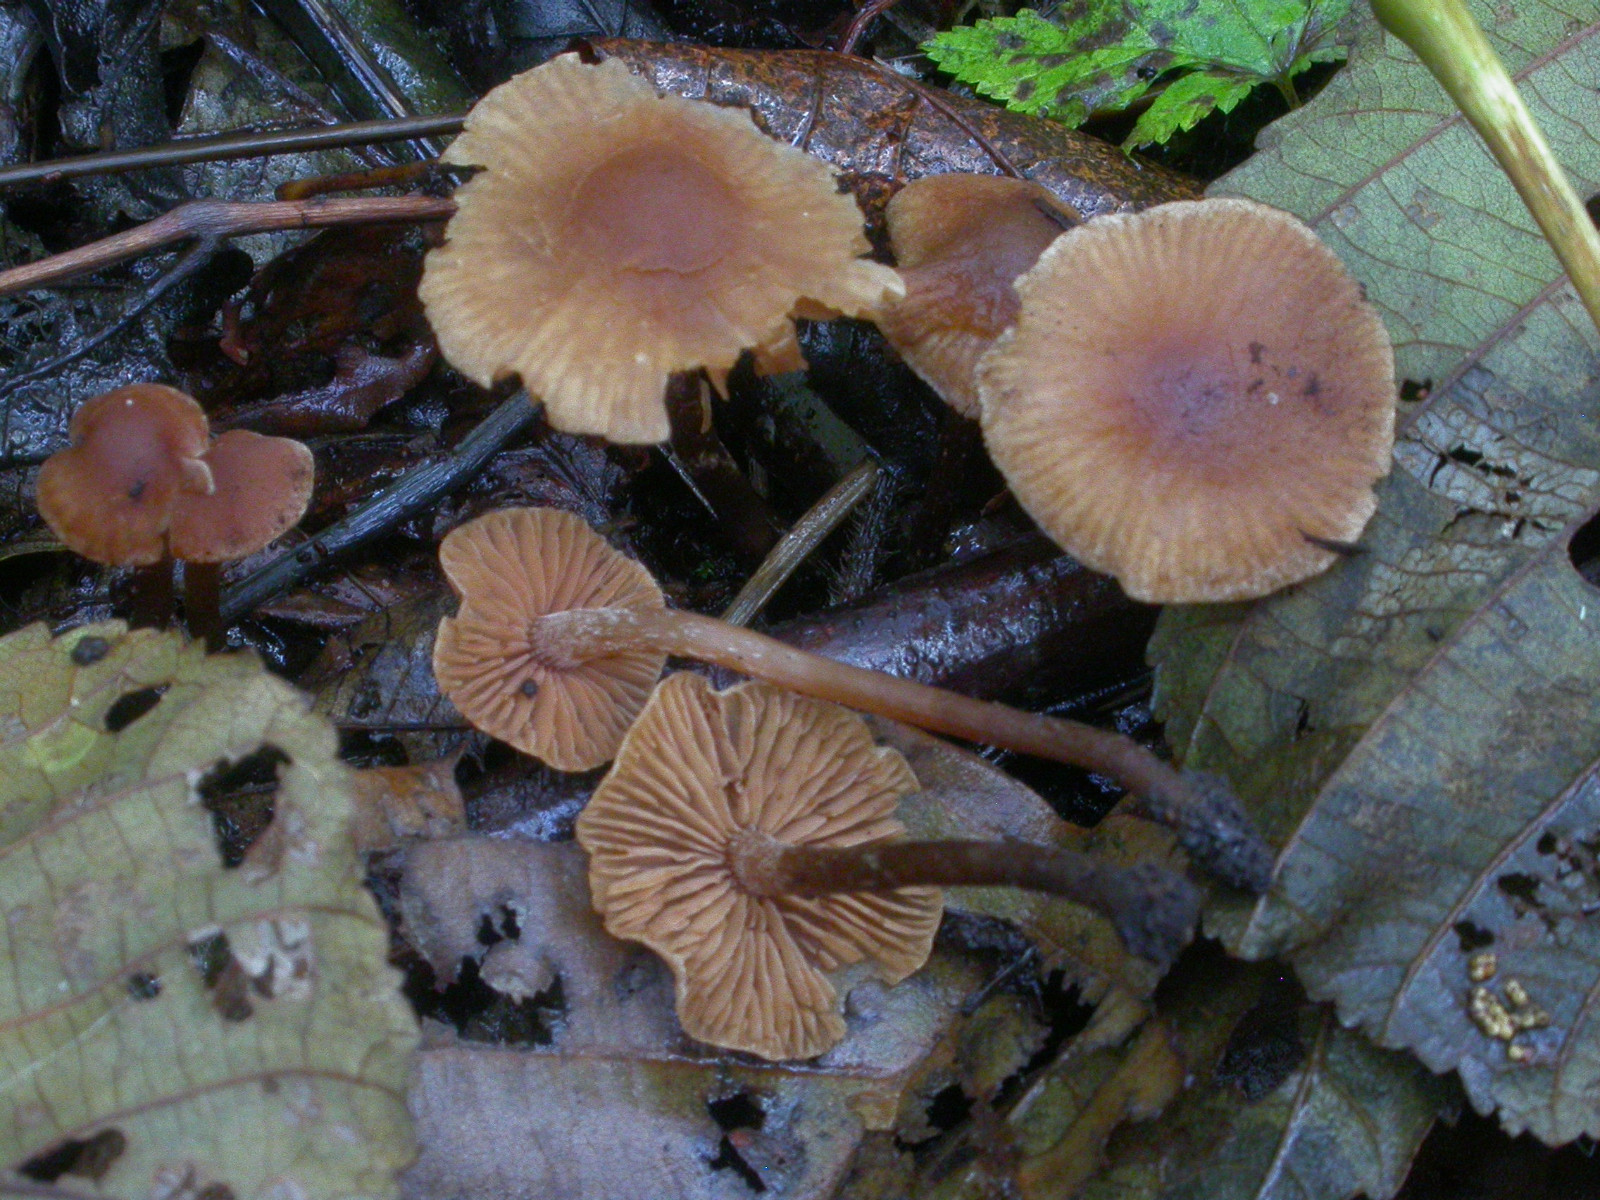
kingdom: Fungi
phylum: Basidiomycota
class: Agaricomycetes
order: Agaricales
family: Hymenogastraceae
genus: Naucoria
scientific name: Naucoria scolecina
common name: mørk elle-knaphat
